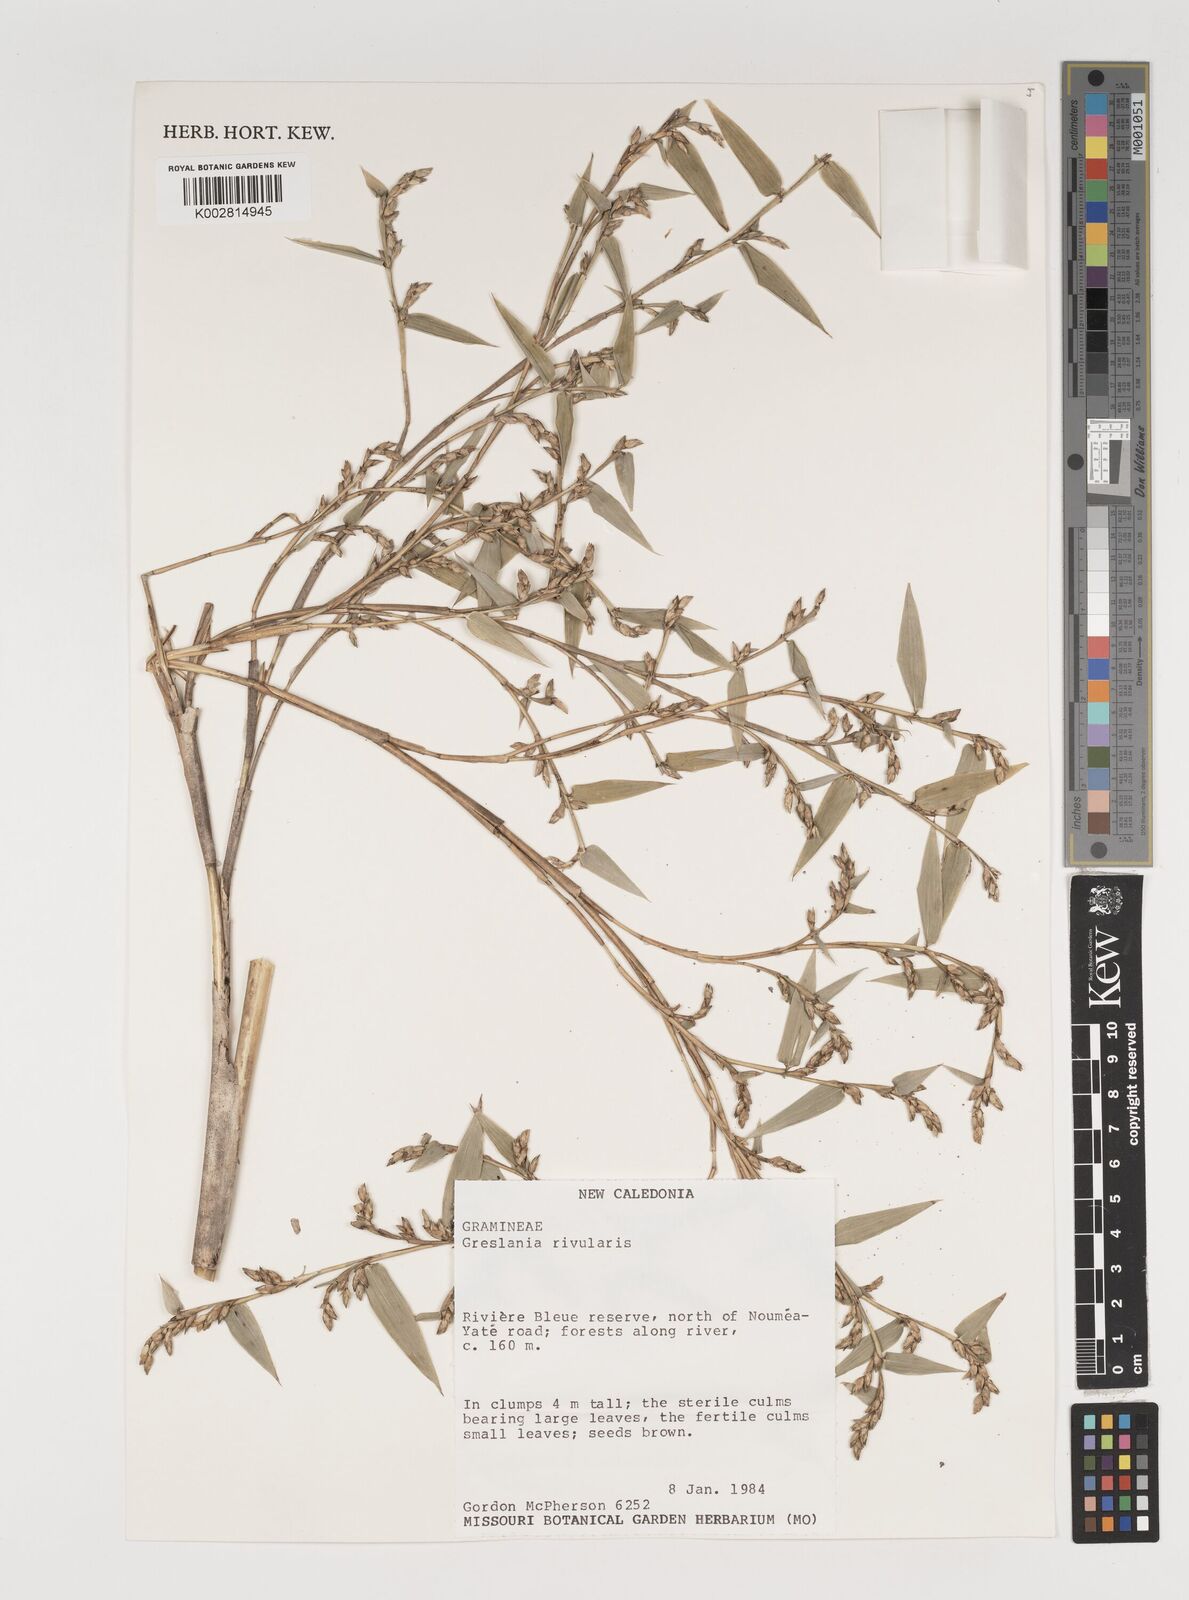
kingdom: Plantae
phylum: Tracheophyta
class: Liliopsida
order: Poales
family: Poaceae
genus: Greslania
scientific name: Greslania rivularis
